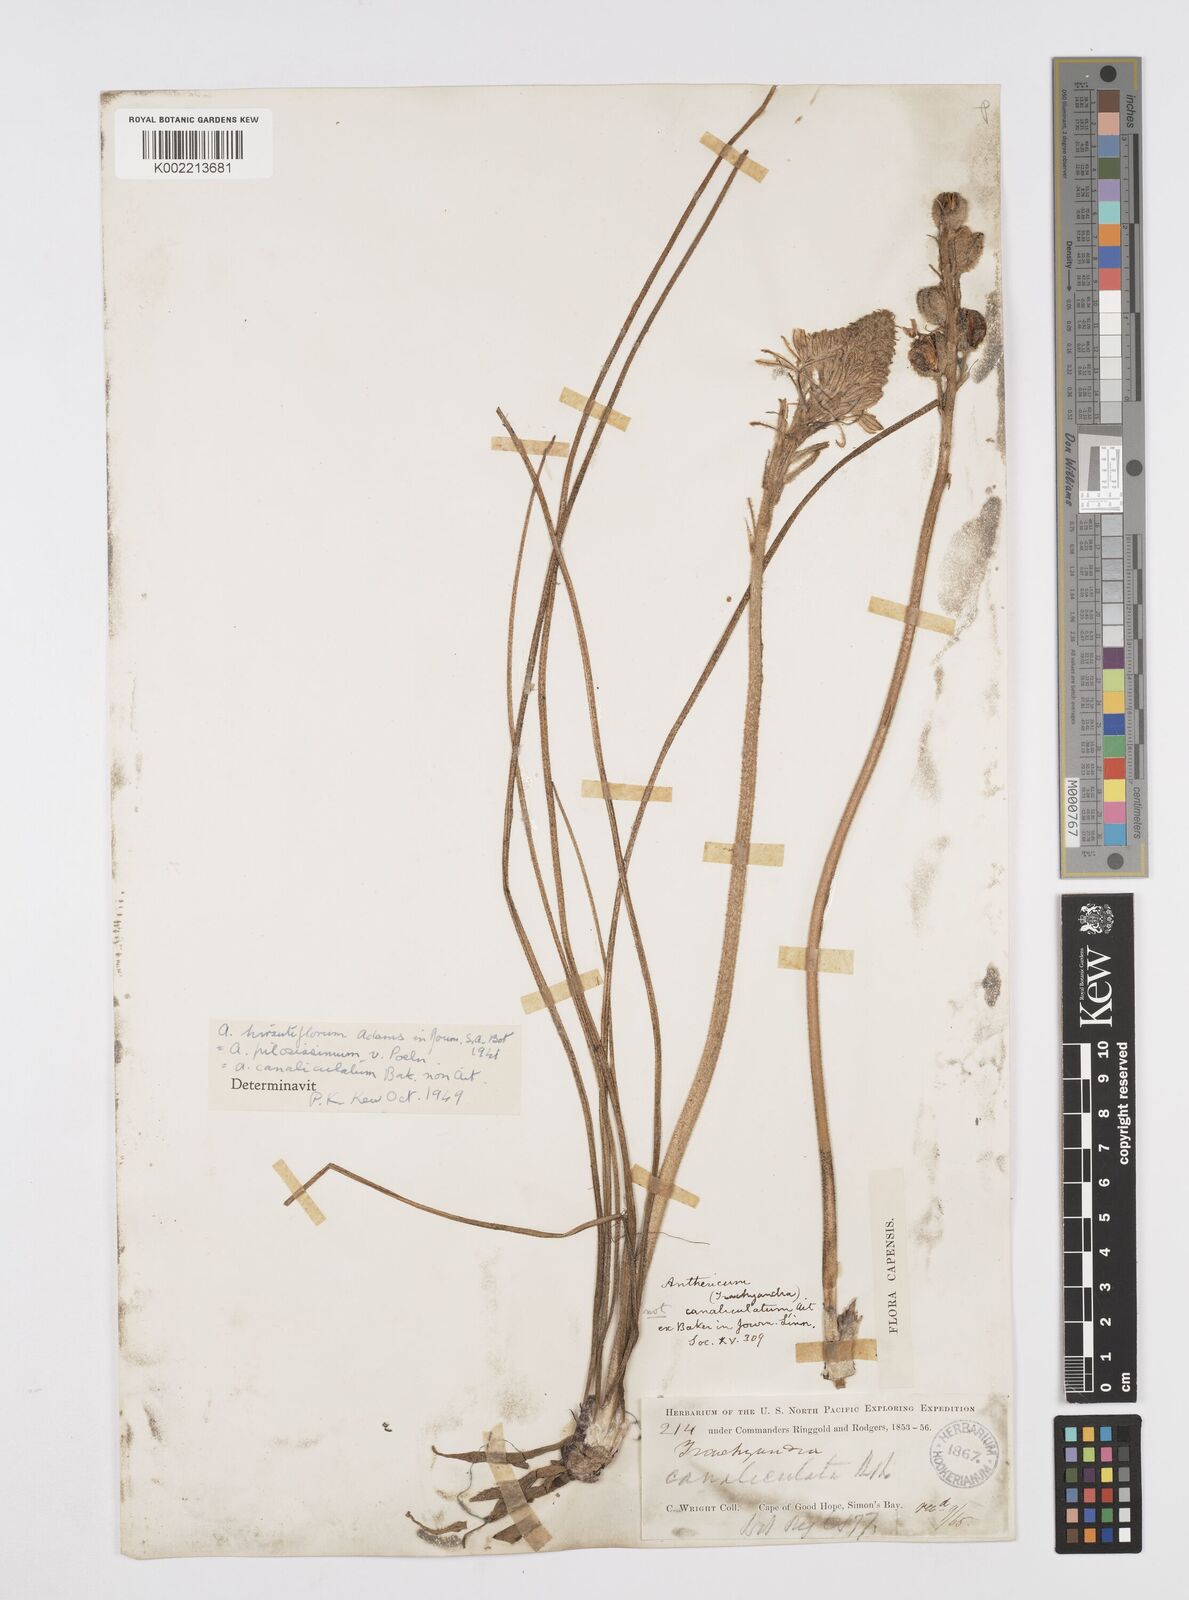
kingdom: Plantae
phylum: Tracheophyta
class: Liliopsida
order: Asparagales
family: Asphodelaceae
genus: Trachyandra
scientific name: Trachyandra hirsutiflora
